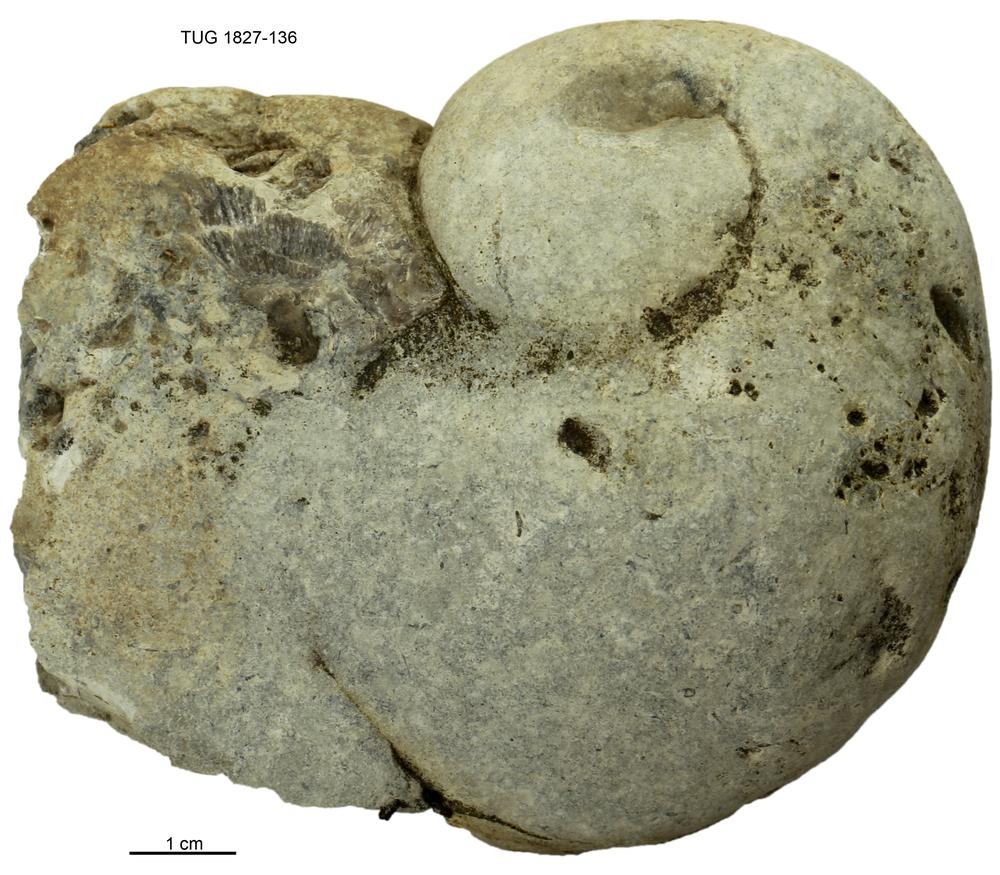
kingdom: Animalia
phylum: Mollusca
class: Gastropoda
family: Holopeidae
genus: Holopea
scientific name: Holopea ampullacea
